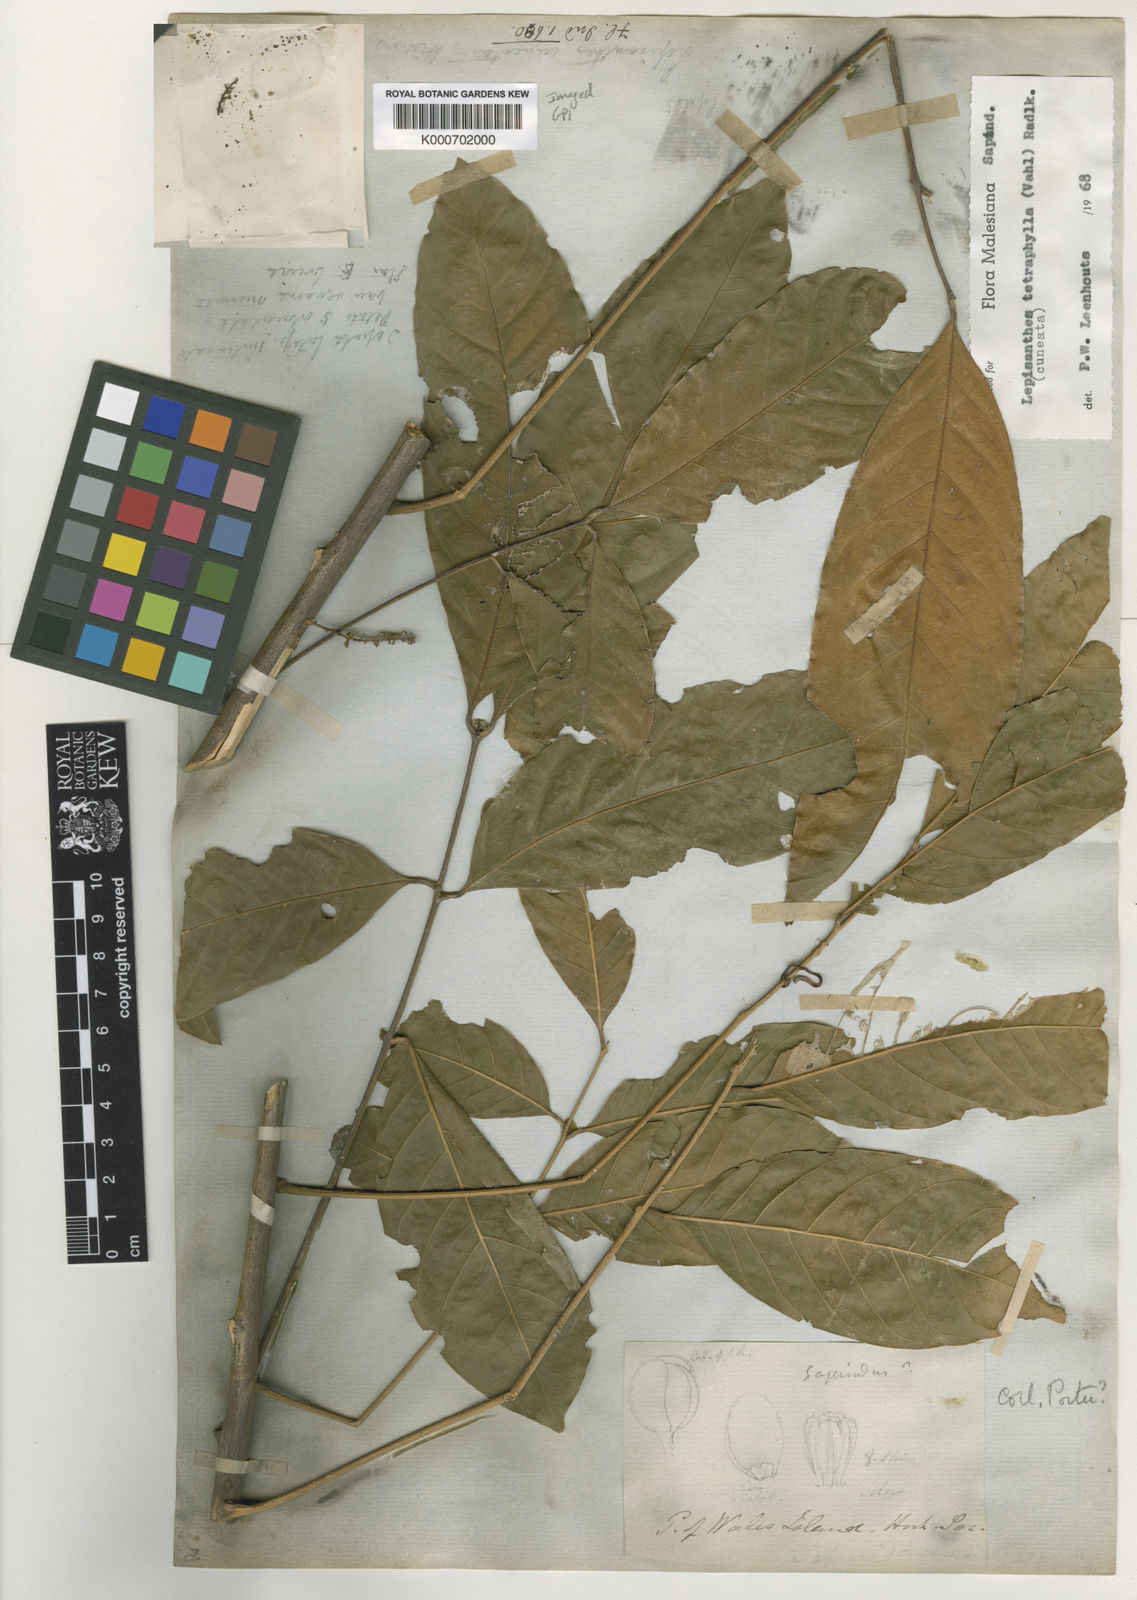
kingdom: Plantae
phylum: Tracheophyta
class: Magnoliopsida
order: Sapindales
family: Sapindaceae
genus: Lepisanthes
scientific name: Lepisanthes tetraphylla
